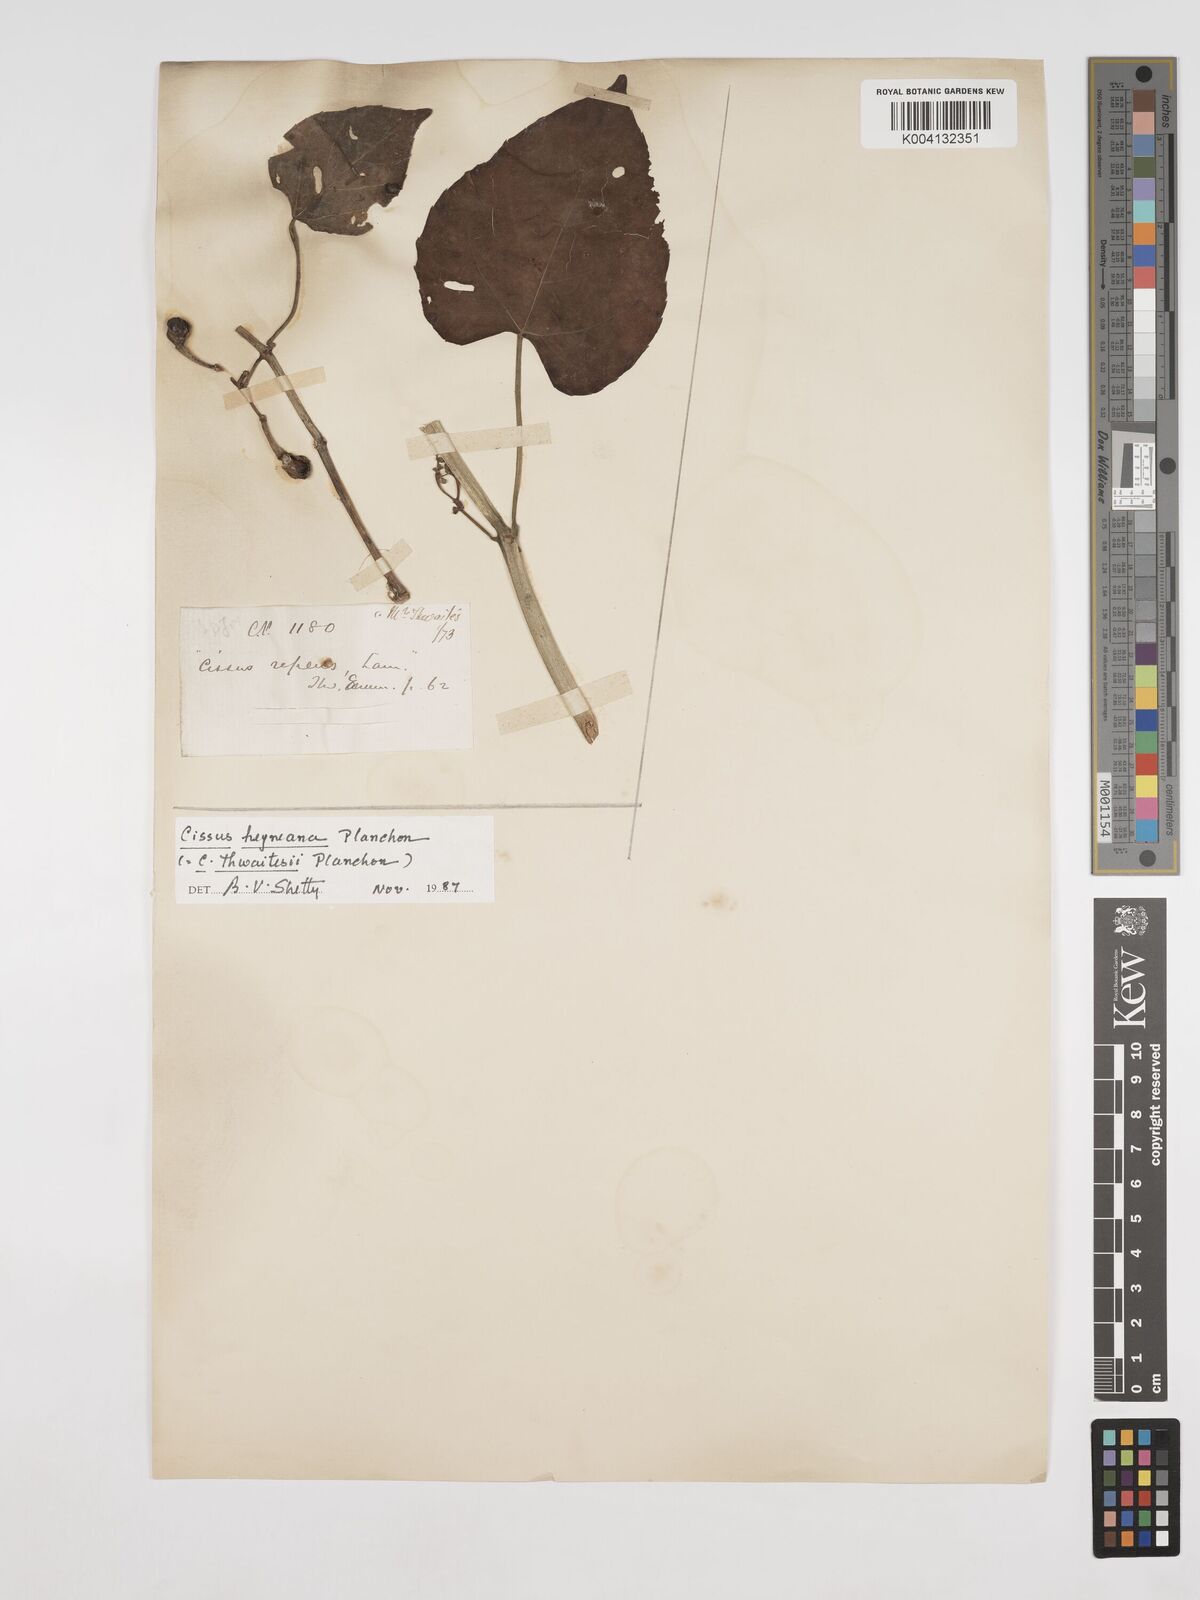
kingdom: Plantae
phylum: Tracheophyta
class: Magnoliopsida
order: Vitales
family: Vitaceae
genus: Cissus
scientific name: Cissus heyneana
